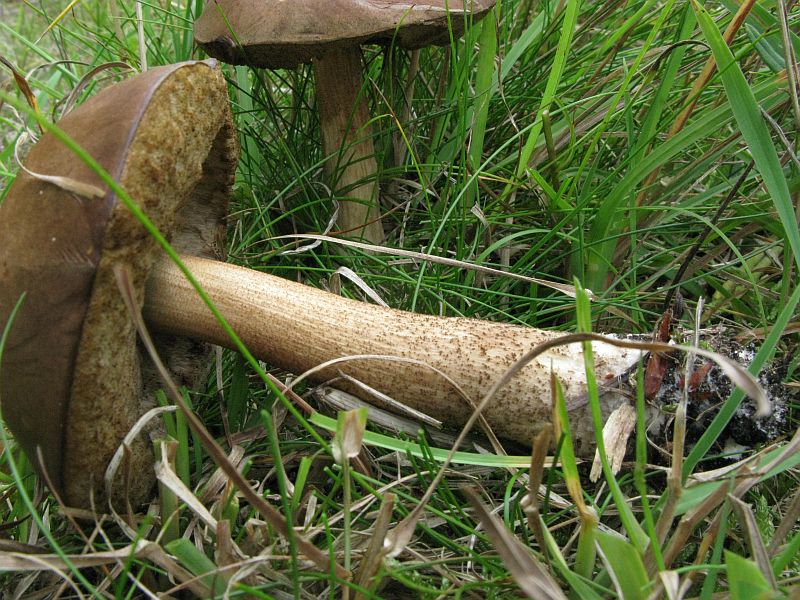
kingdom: Fungi
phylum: Basidiomycota
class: Agaricomycetes
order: Boletales
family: Boletaceae
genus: Leccinum
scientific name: Leccinum cyaneobasileucum
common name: almindelig skælrørhat
